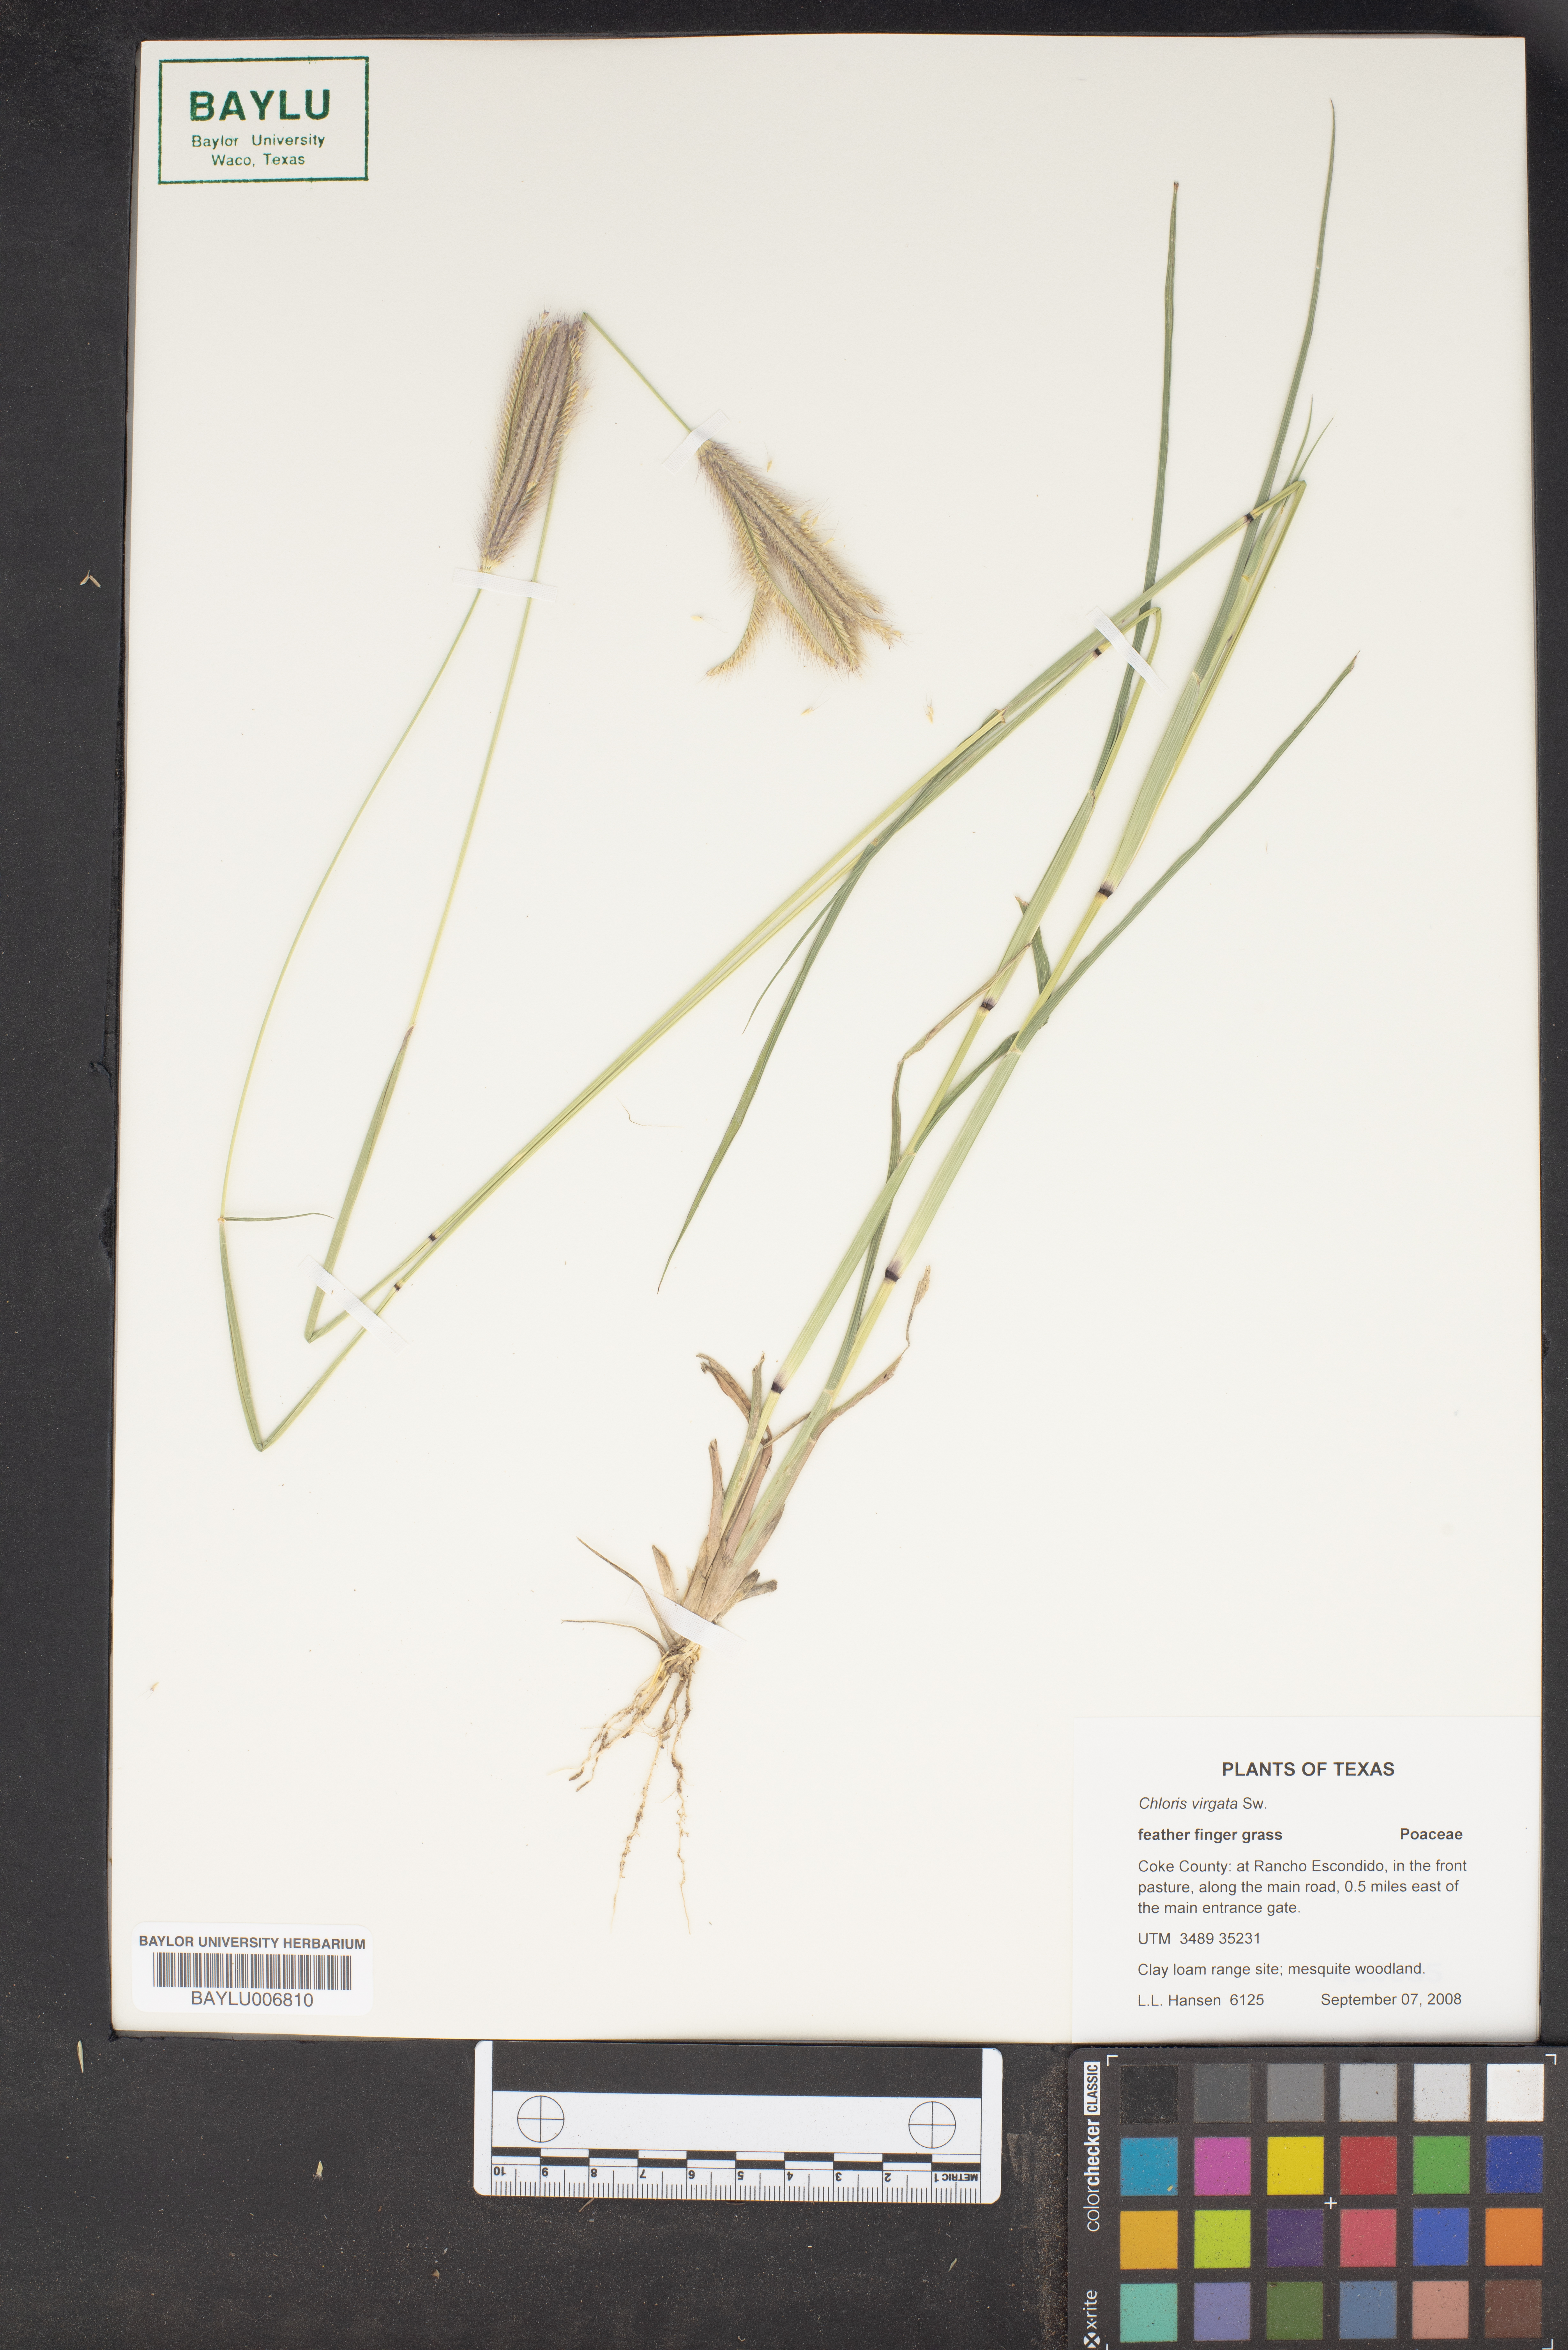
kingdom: Plantae
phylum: Tracheophyta
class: Liliopsida
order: Poales
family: Poaceae
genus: Chloris
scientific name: Chloris virgata
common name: Feathery rhodes-grass
